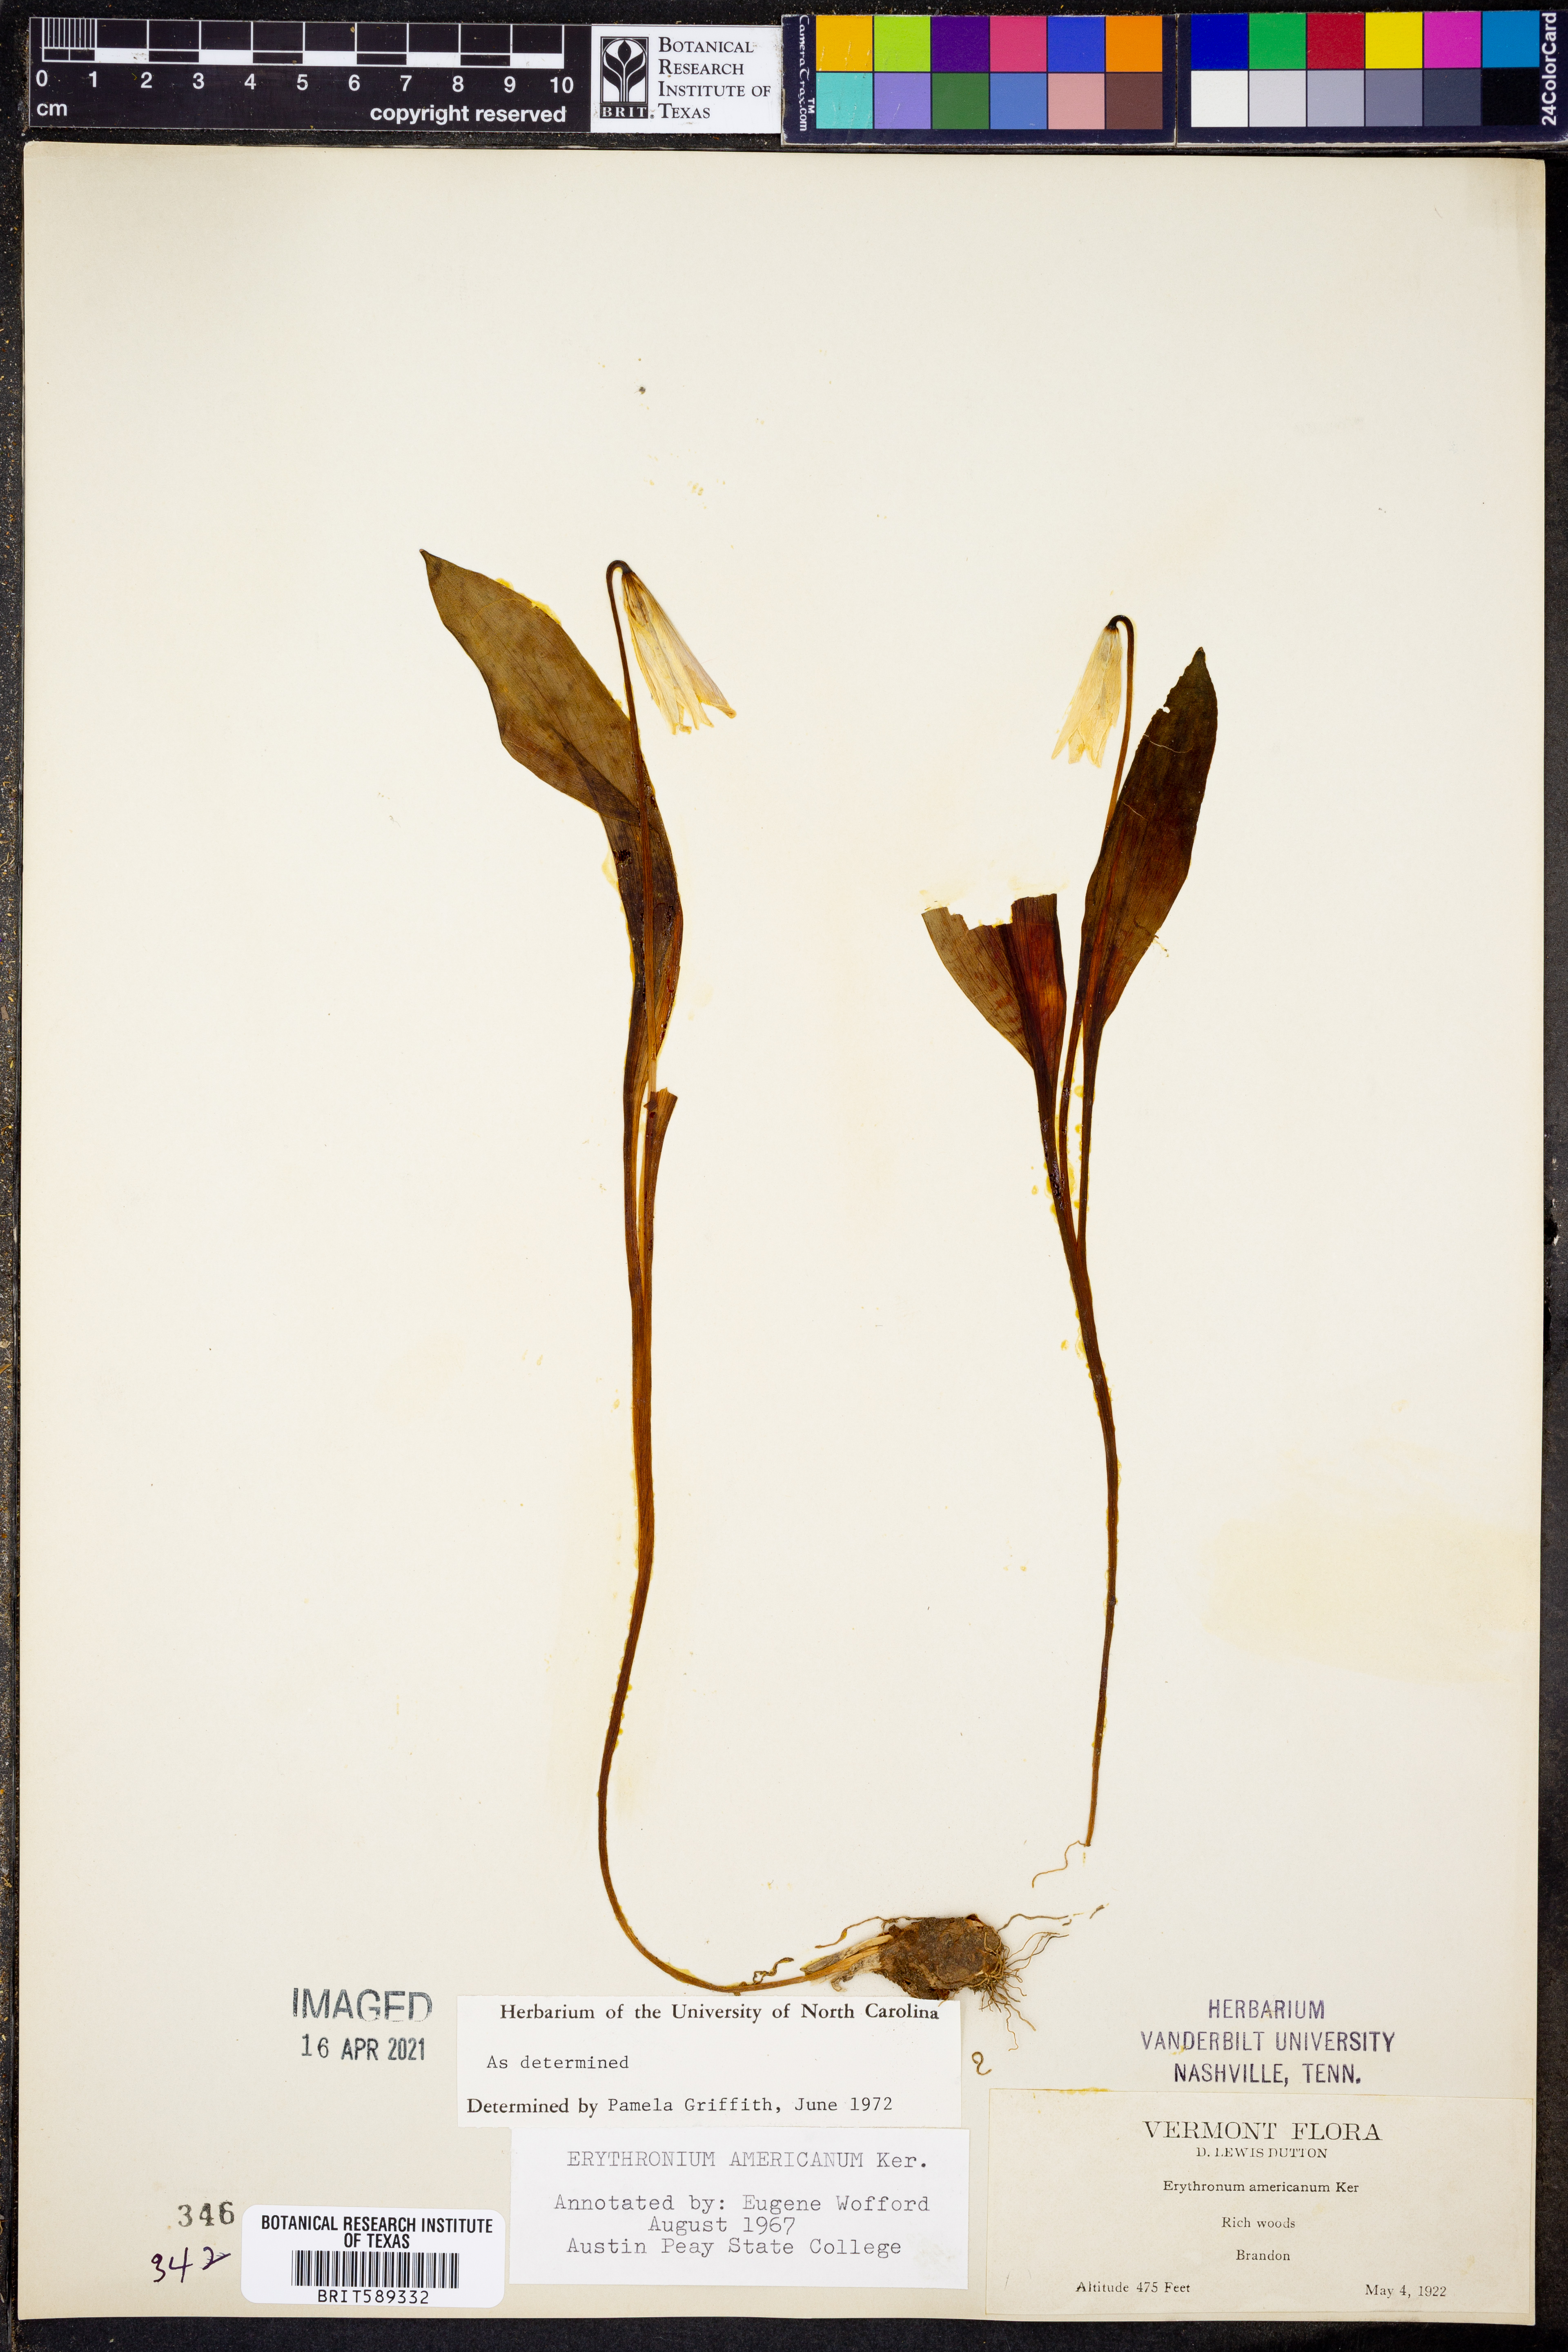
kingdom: Plantae
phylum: Tracheophyta
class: Liliopsida
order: Liliales
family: Liliaceae
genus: Erythronium
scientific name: Erythronium americanum
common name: Yellow adder's-tongue
